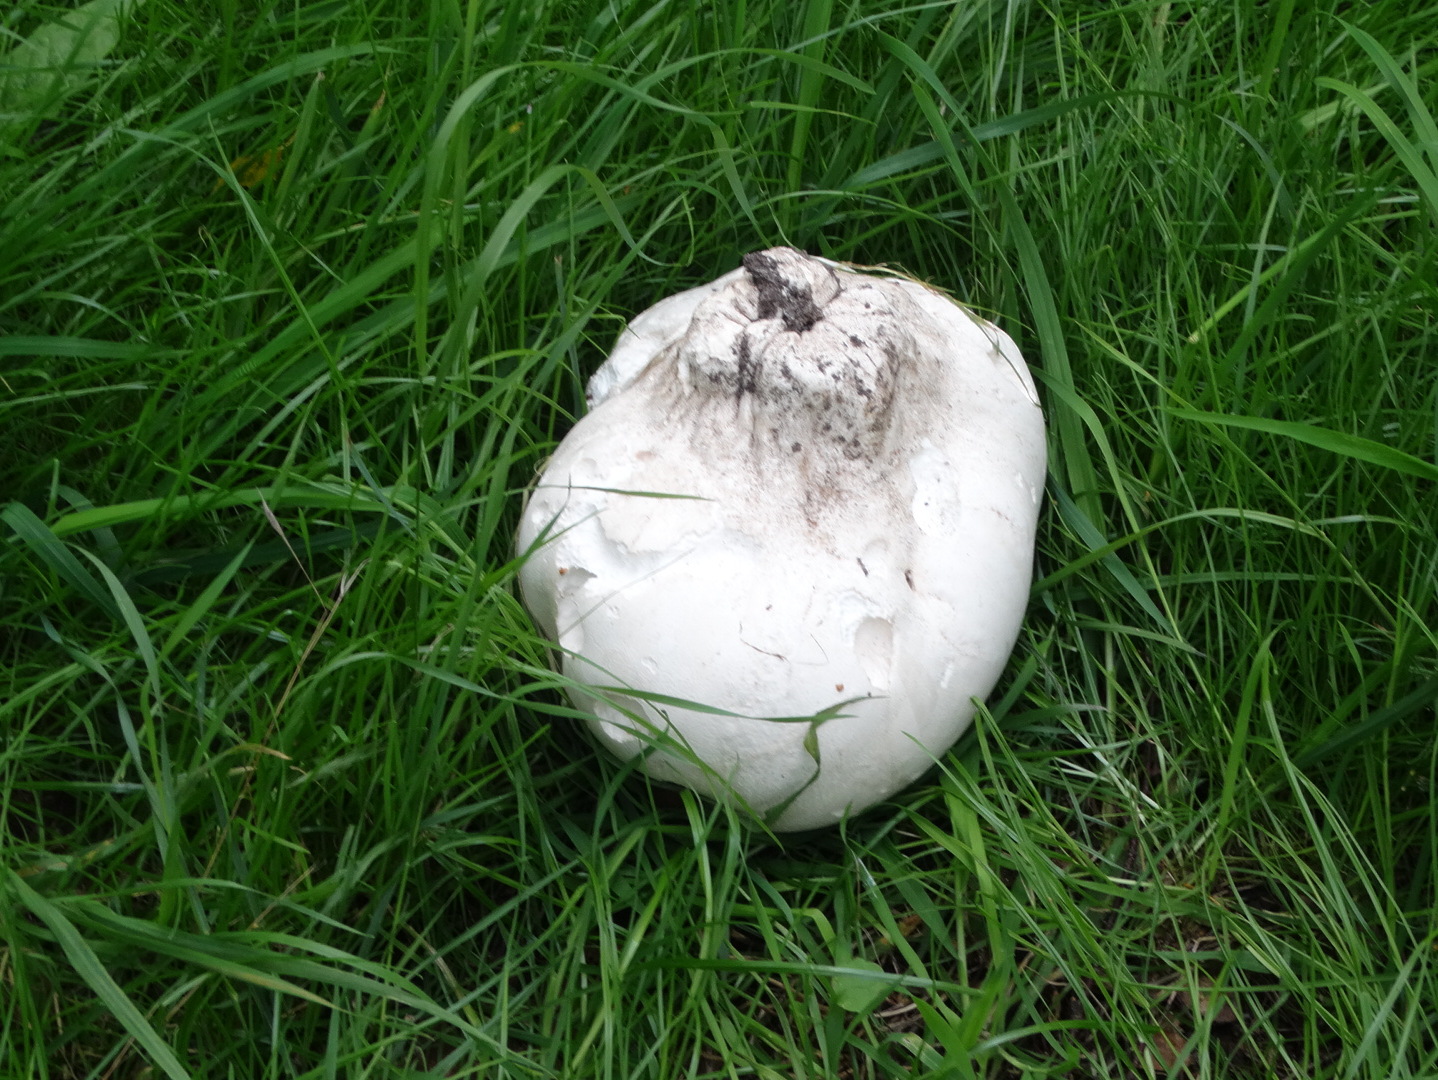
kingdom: Fungi
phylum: Basidiomycota
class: Agaricomycetes
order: Agaricales
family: Lycoperdaceae
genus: Calvatia
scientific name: Calvatia gigantea
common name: kæmpestøvbold
